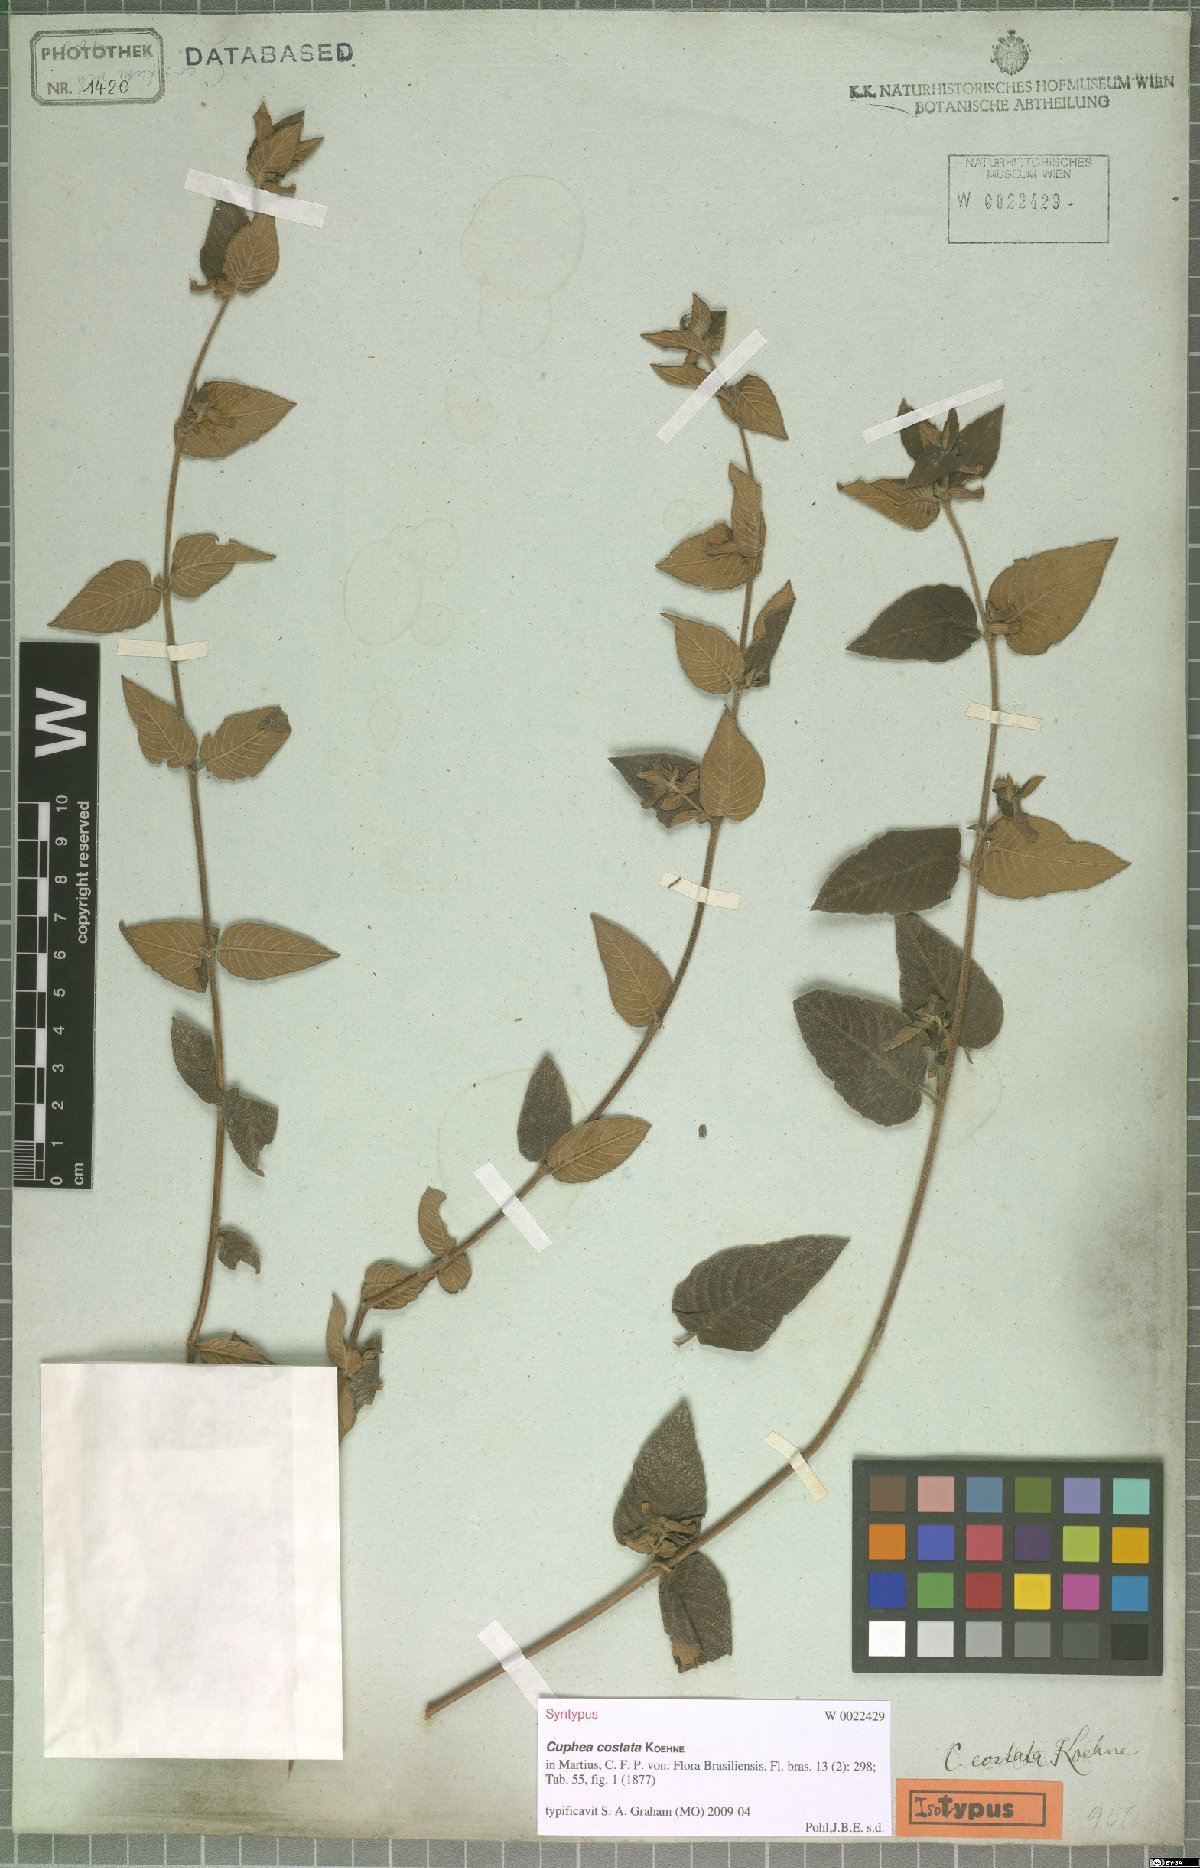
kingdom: Plantae
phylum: Tracheophyta
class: Magnoliopsida
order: Myrtales
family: Lythraceae
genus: Cuphea
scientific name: Cuphea sessiliflora
